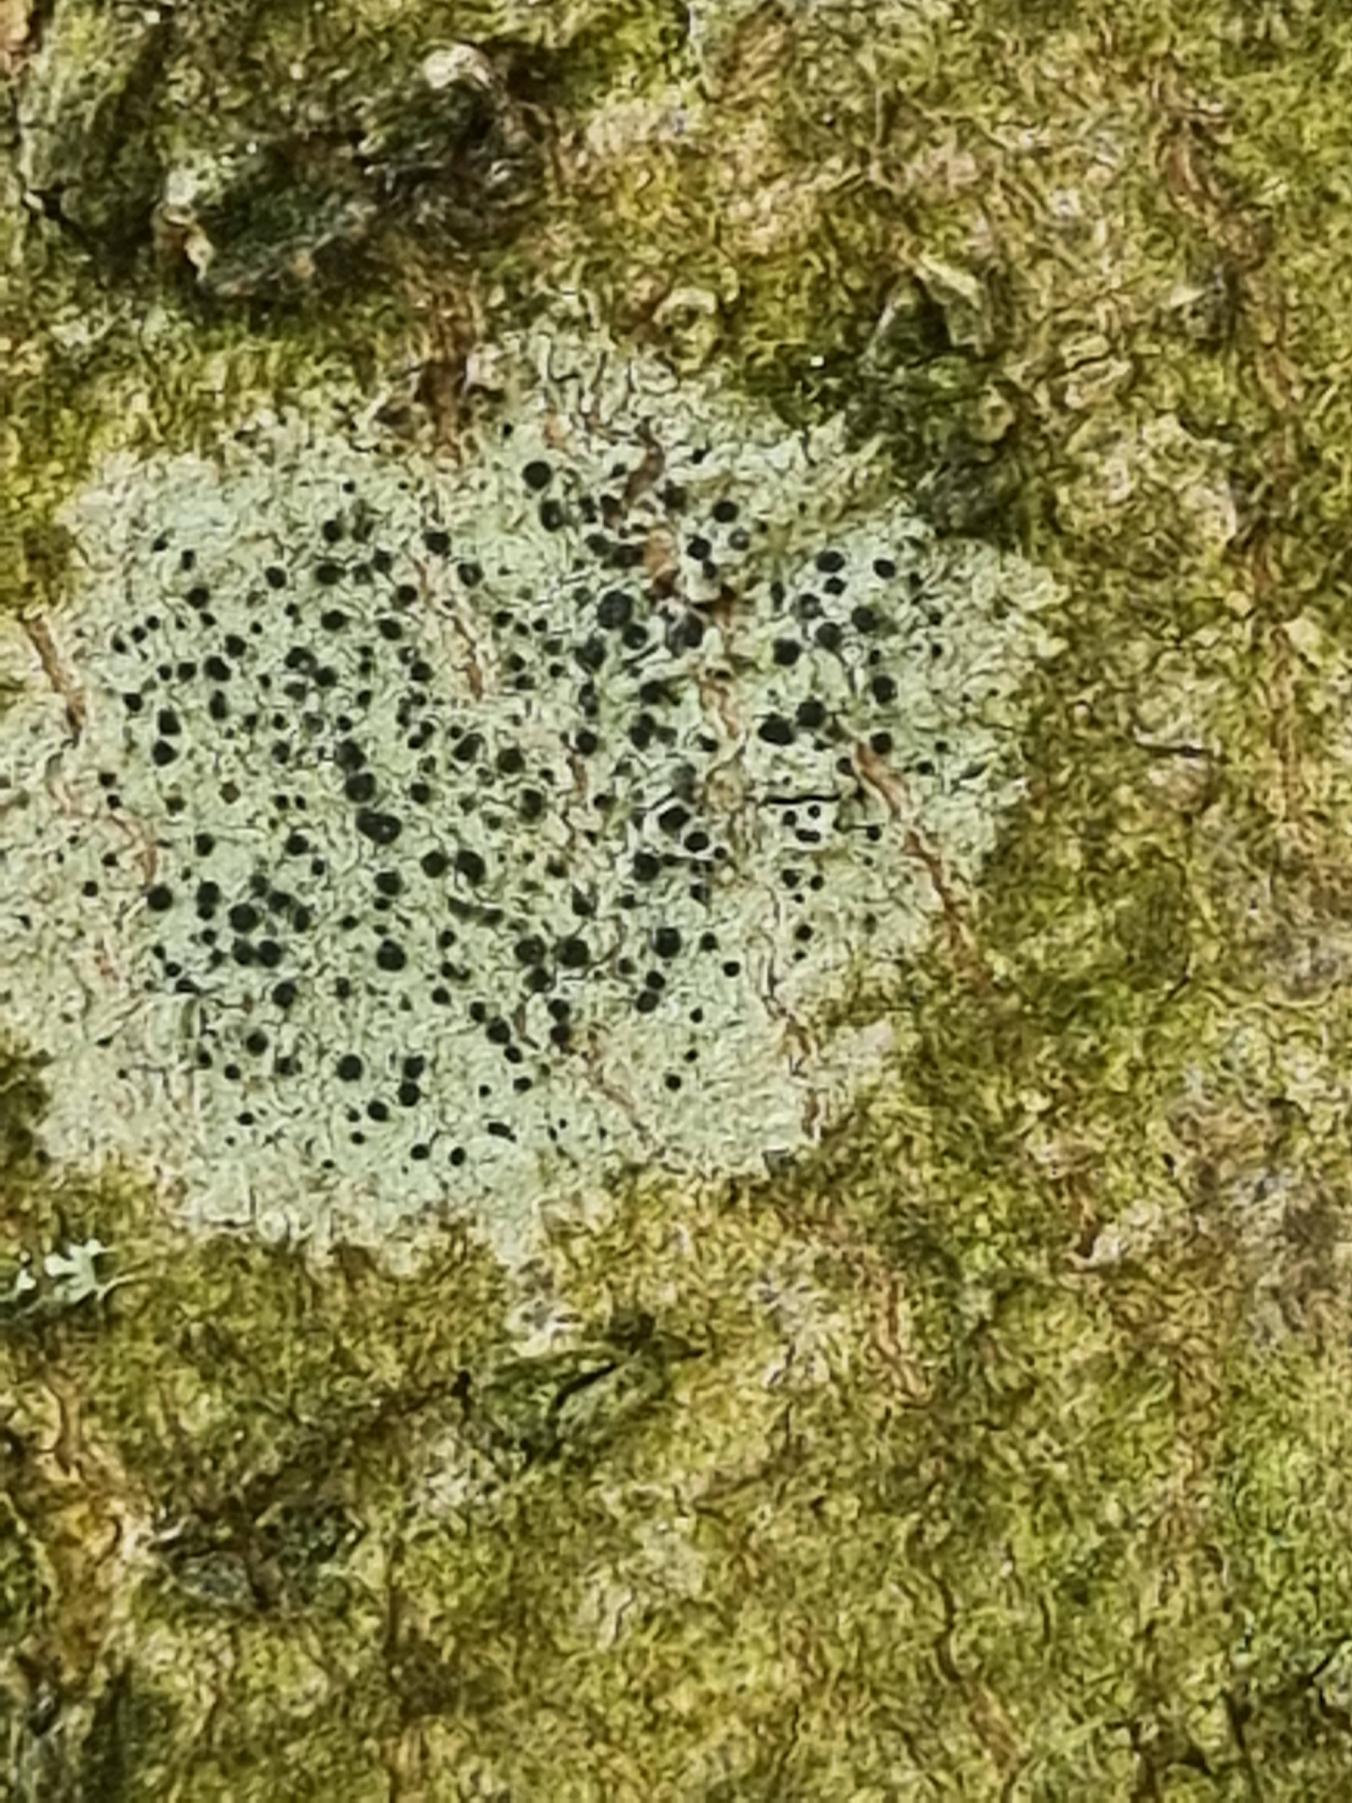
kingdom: Fungi
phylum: Ascomycota
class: Lecanoromycetes
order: Lecanorales
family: Lecanoraceae
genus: Lecidella
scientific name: Lecidella elaeochroma
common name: Grågrøn skivelav
